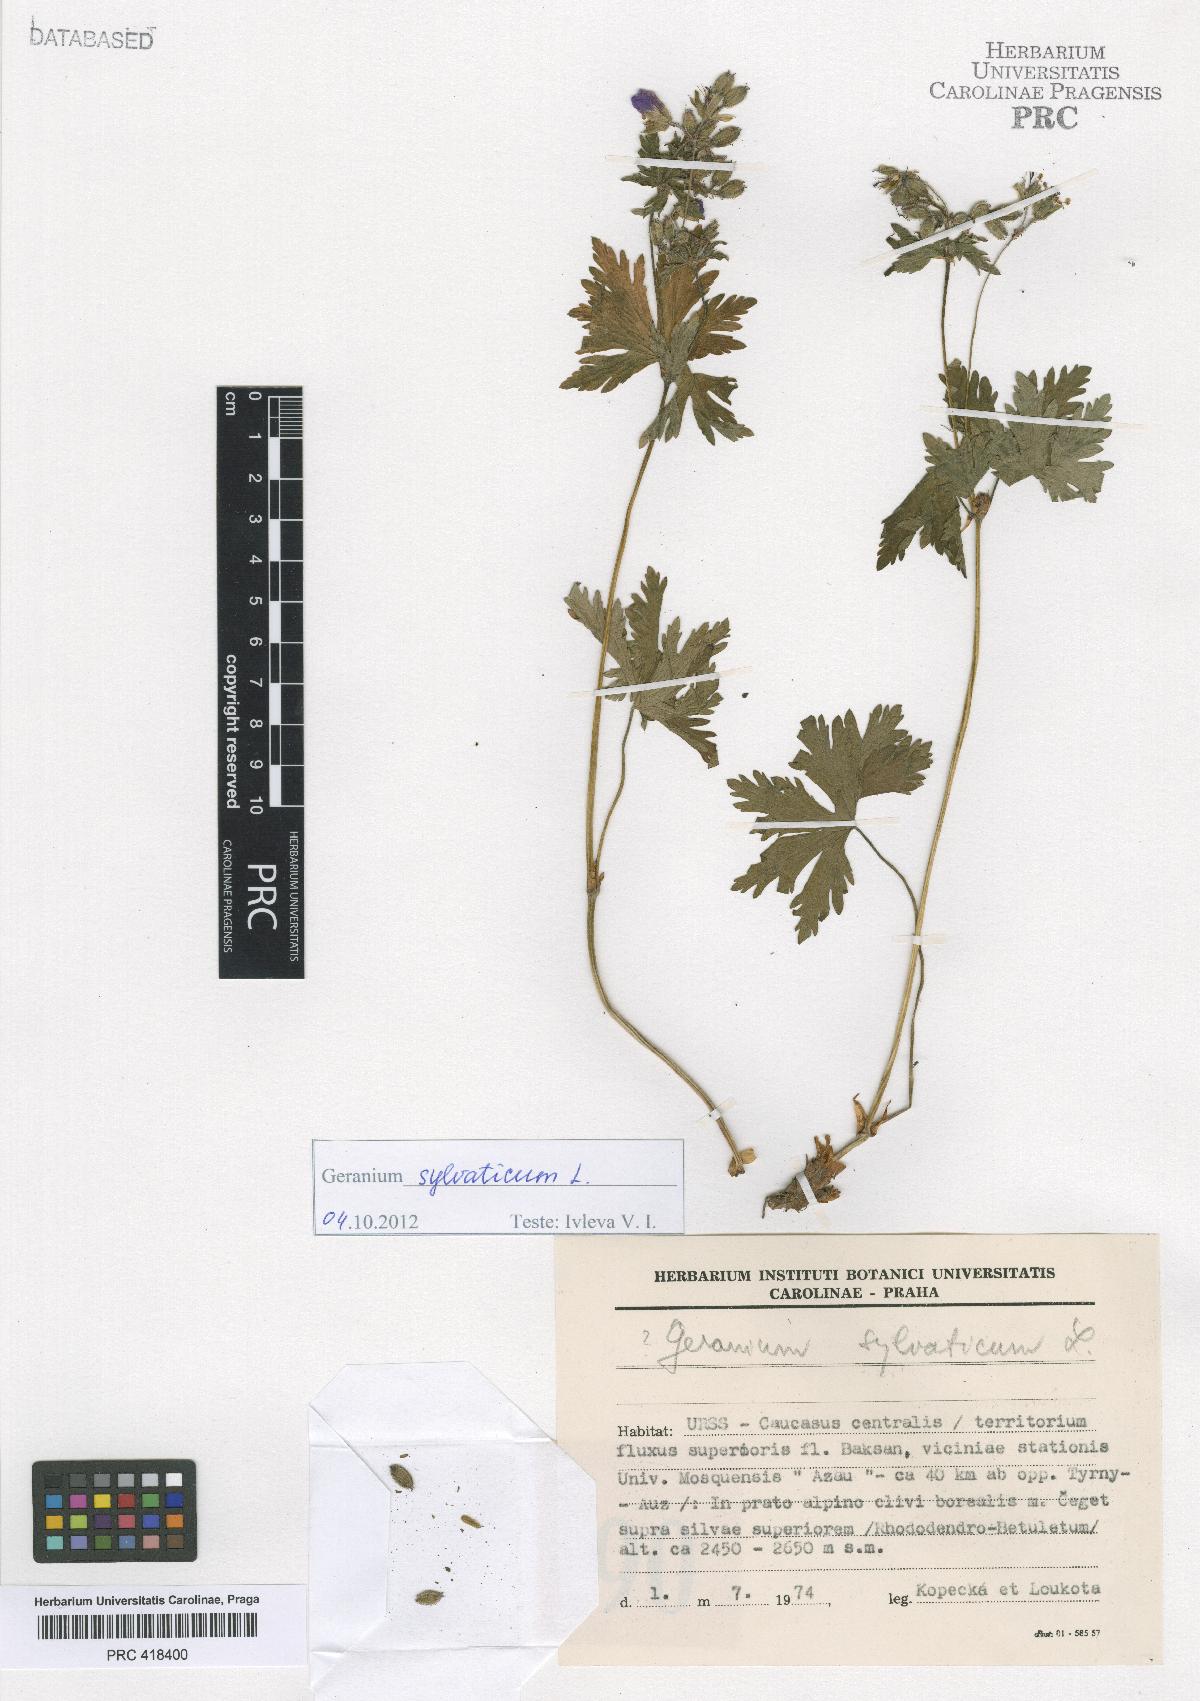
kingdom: Plantae
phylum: Tracheophyta
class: Magnoliopsida
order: Geraniales
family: Geraniaceae
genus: Geranium
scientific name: Geranium sylvaticum
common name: Wood crane's-bill
